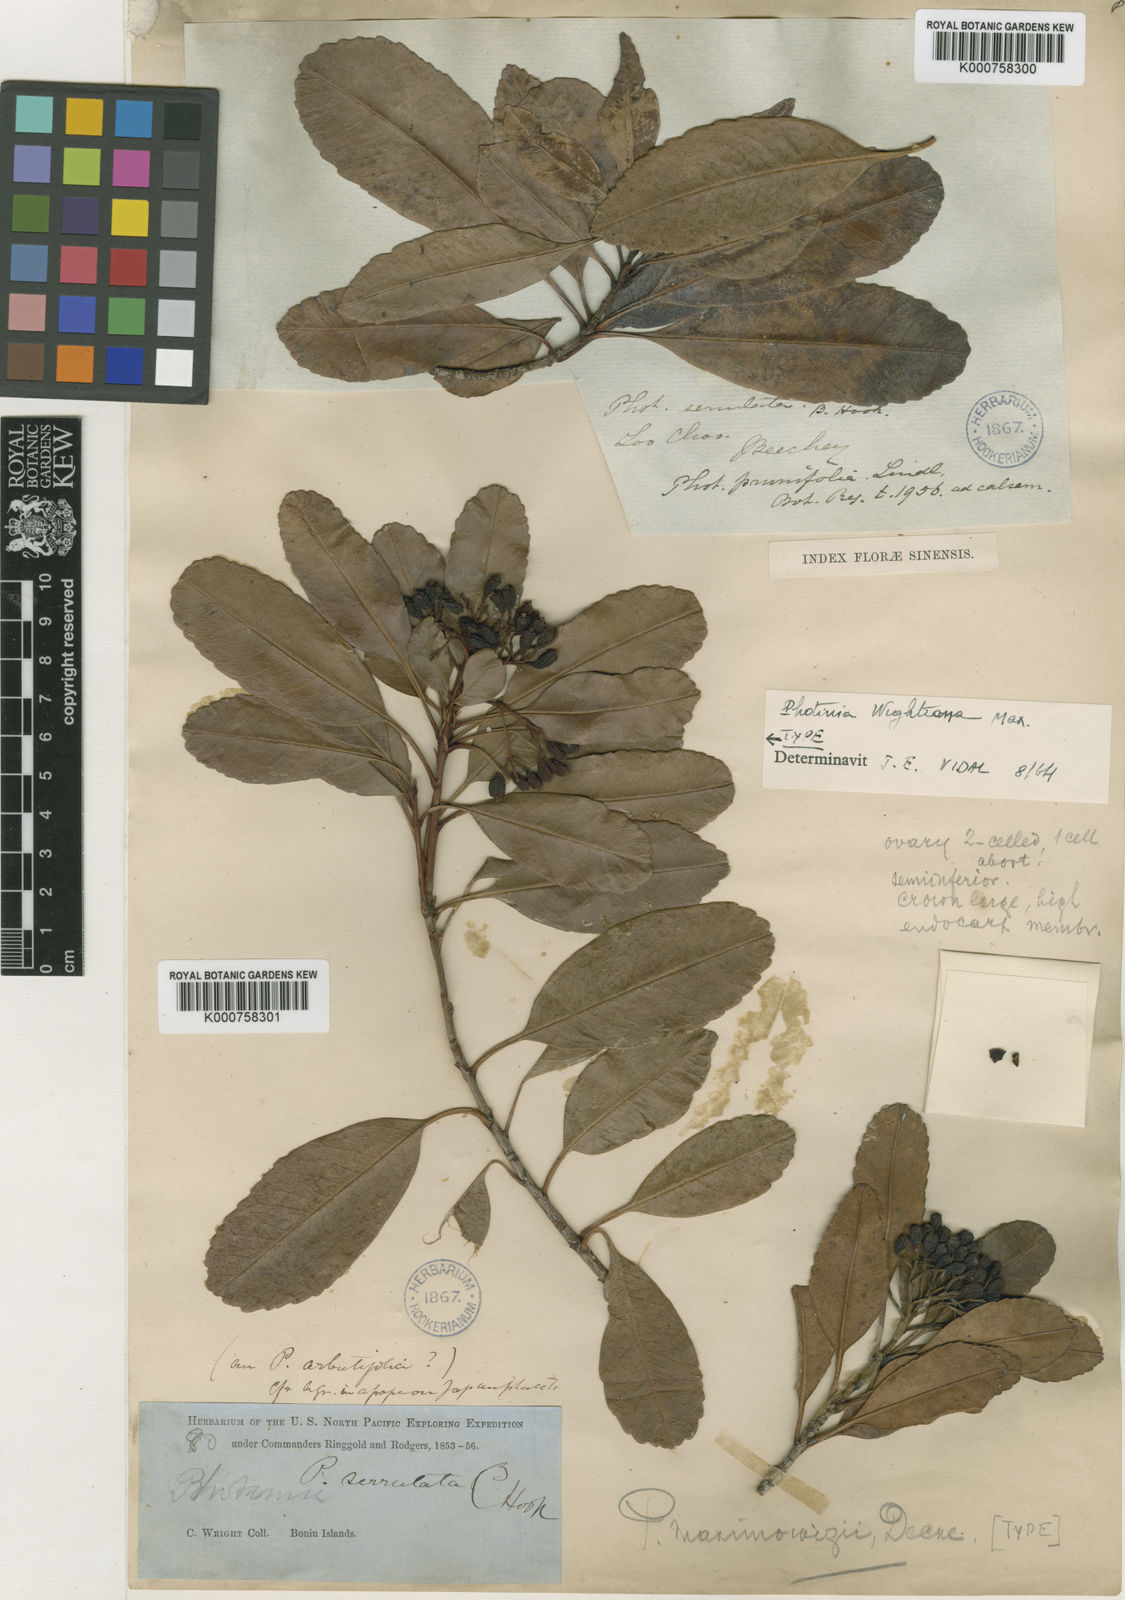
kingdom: Plantae
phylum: Tracheophyta
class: Magnoliopsida
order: Rosales
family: Rosaceae
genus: Photinia
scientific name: Photinia wrightiana
